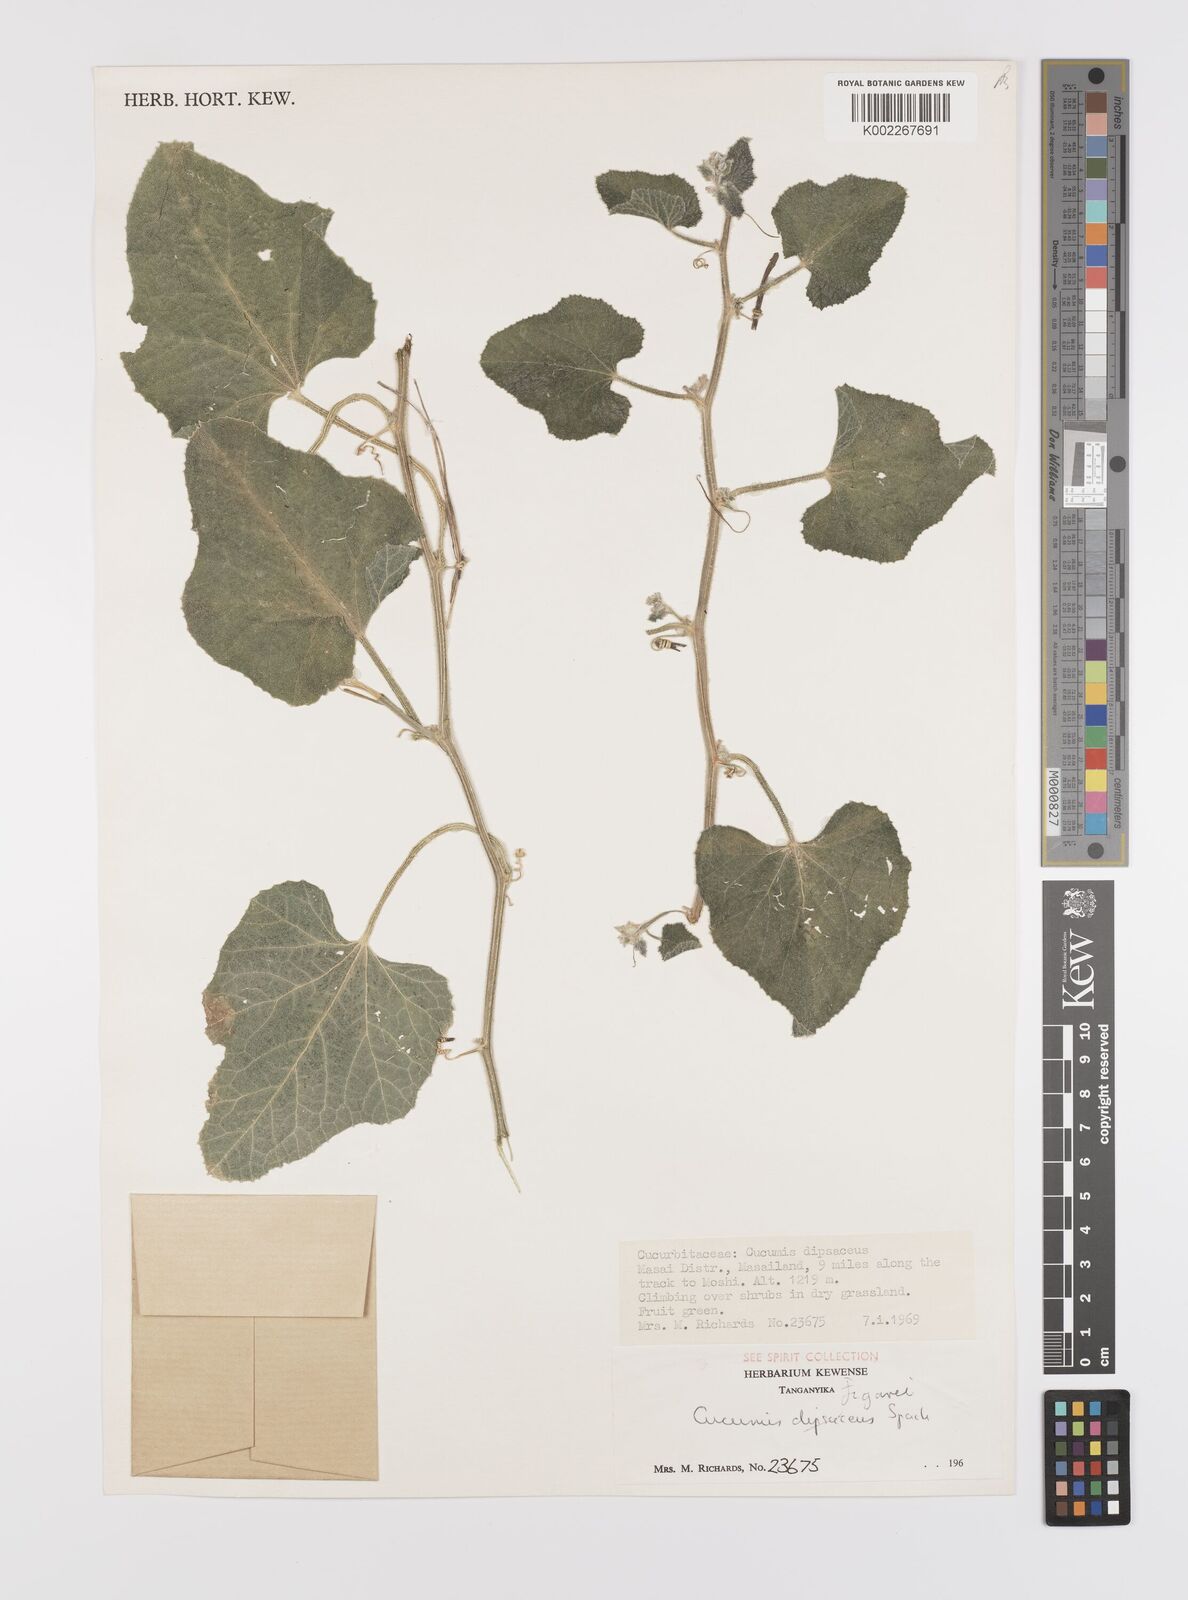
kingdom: Plantae
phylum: Tracheophyta
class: Magnoliopsida
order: Cucurbitales
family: Cucurbitaceae
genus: Cucumis
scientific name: Cucumis
